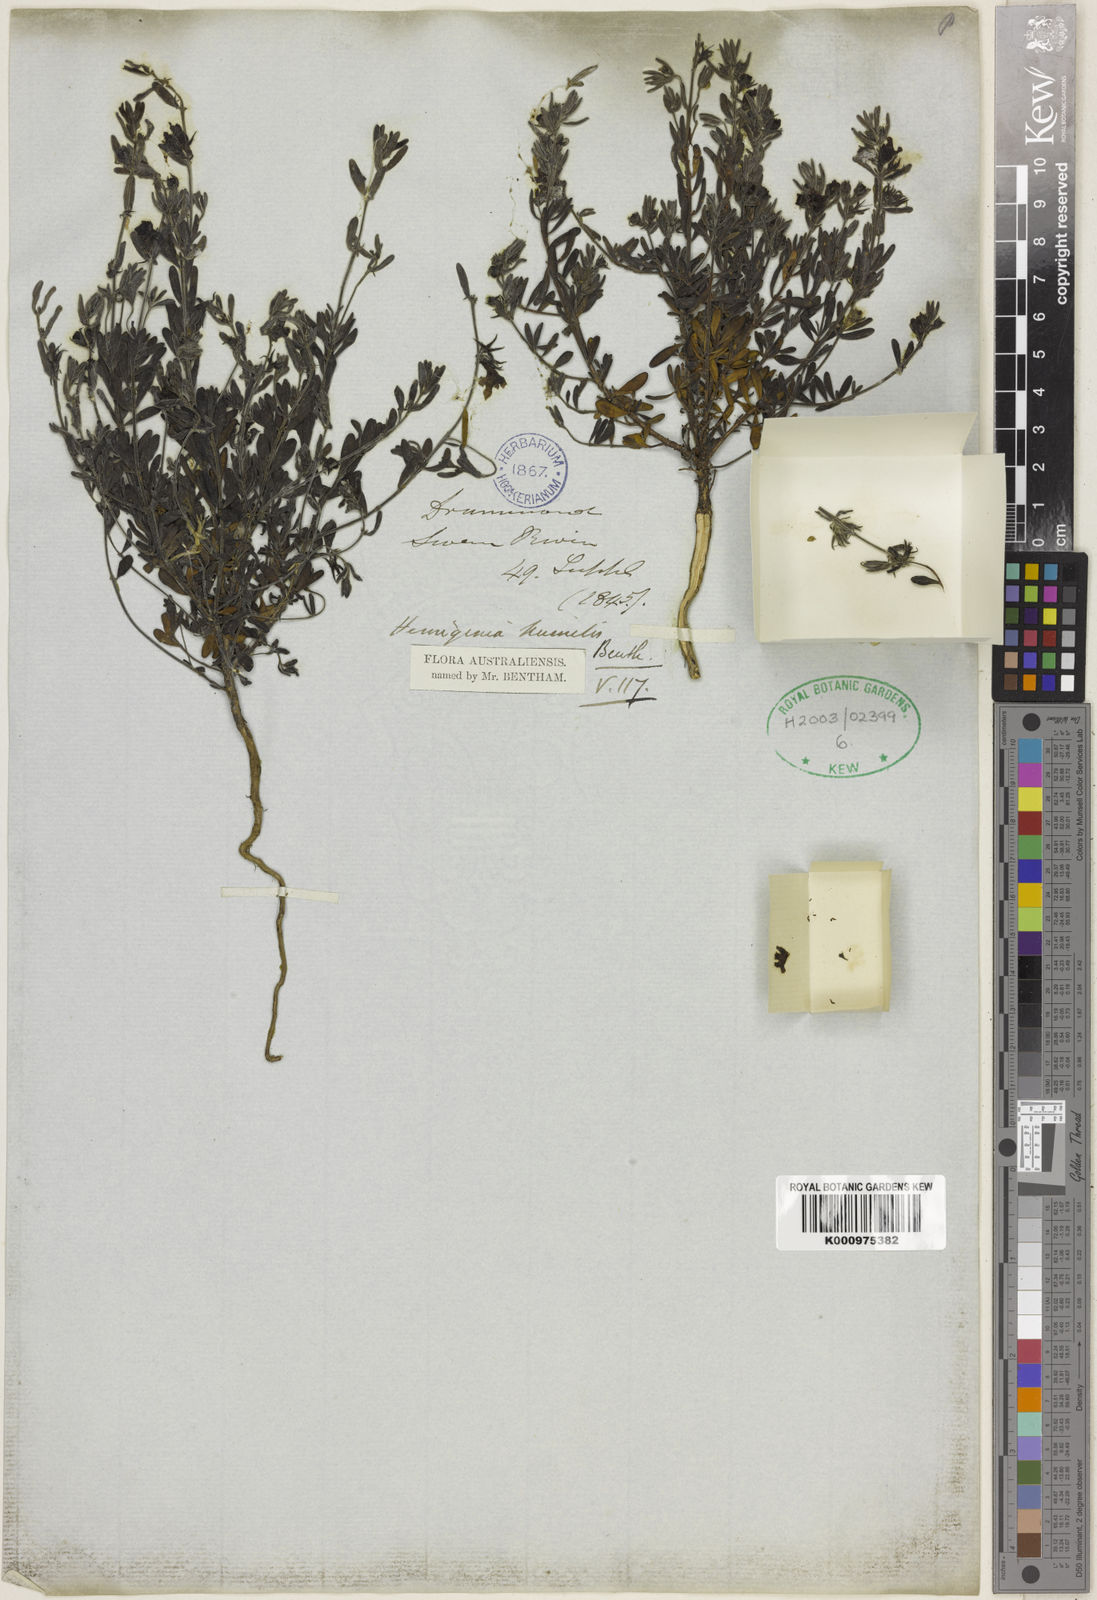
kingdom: Plantae
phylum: Tracheophyta
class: Magnoliopsida
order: Lamiales
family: Lamiaceae
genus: Hemigenia
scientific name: Hemigenia humilis
